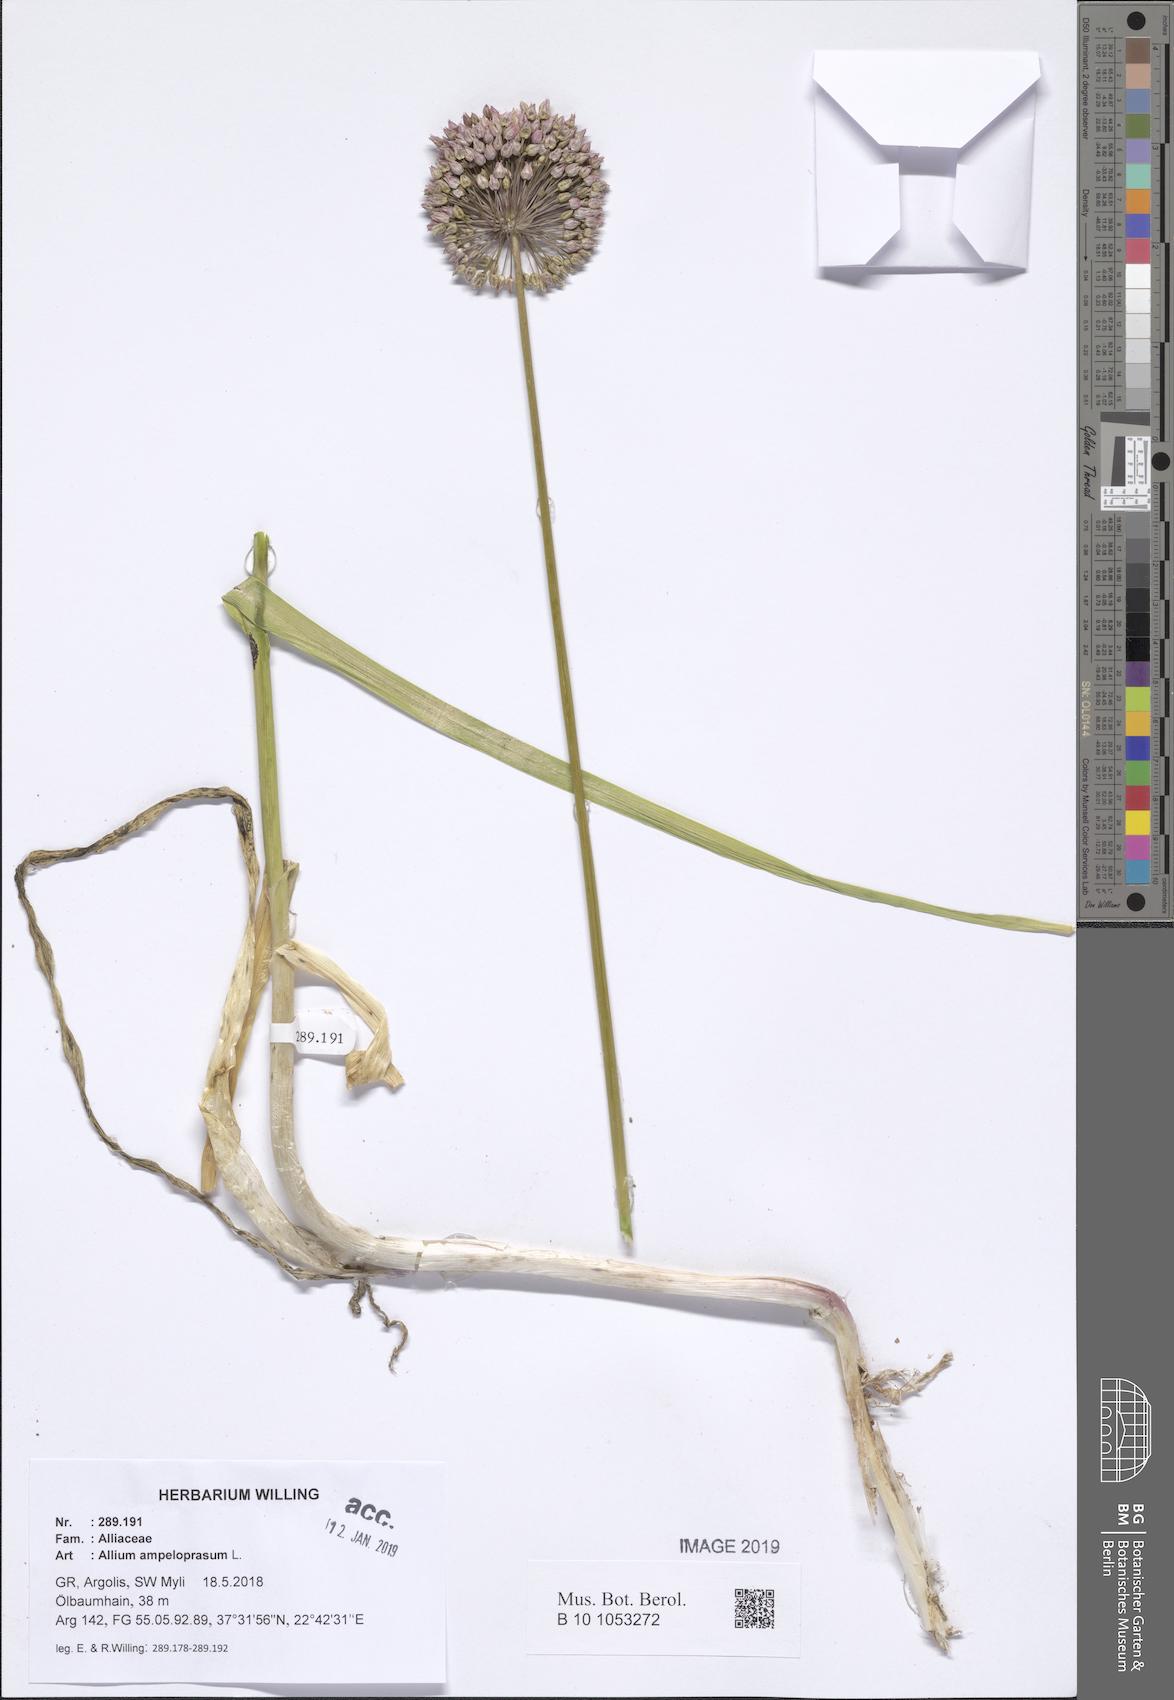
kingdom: Plantae
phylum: Tracheophyta
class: Liliopsida
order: Asparagales
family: Amaryllidaceae
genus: Allium
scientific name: Allium ampeloprasum
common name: Wild leek
